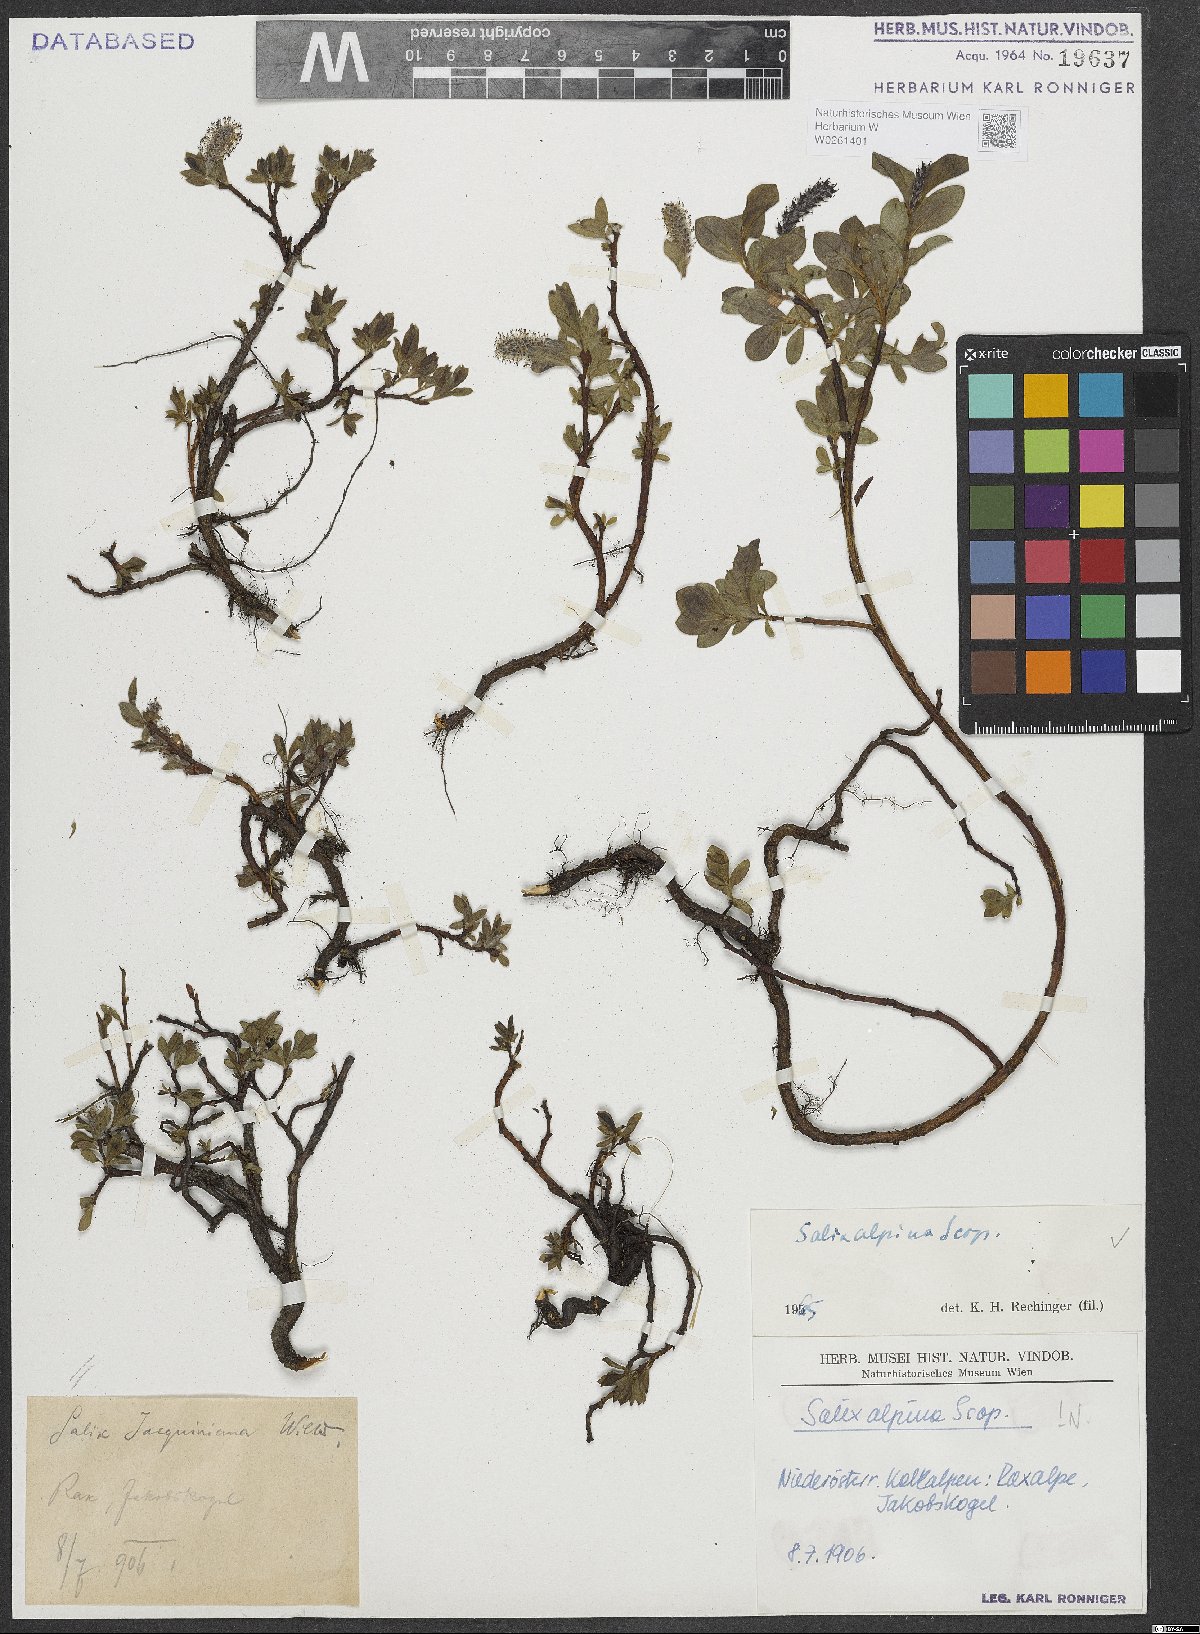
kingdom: Plantae
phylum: Tracheophyta
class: Magnoliopsida
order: Malpighiales
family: Salicaceae
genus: Salix
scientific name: Salix alpina
